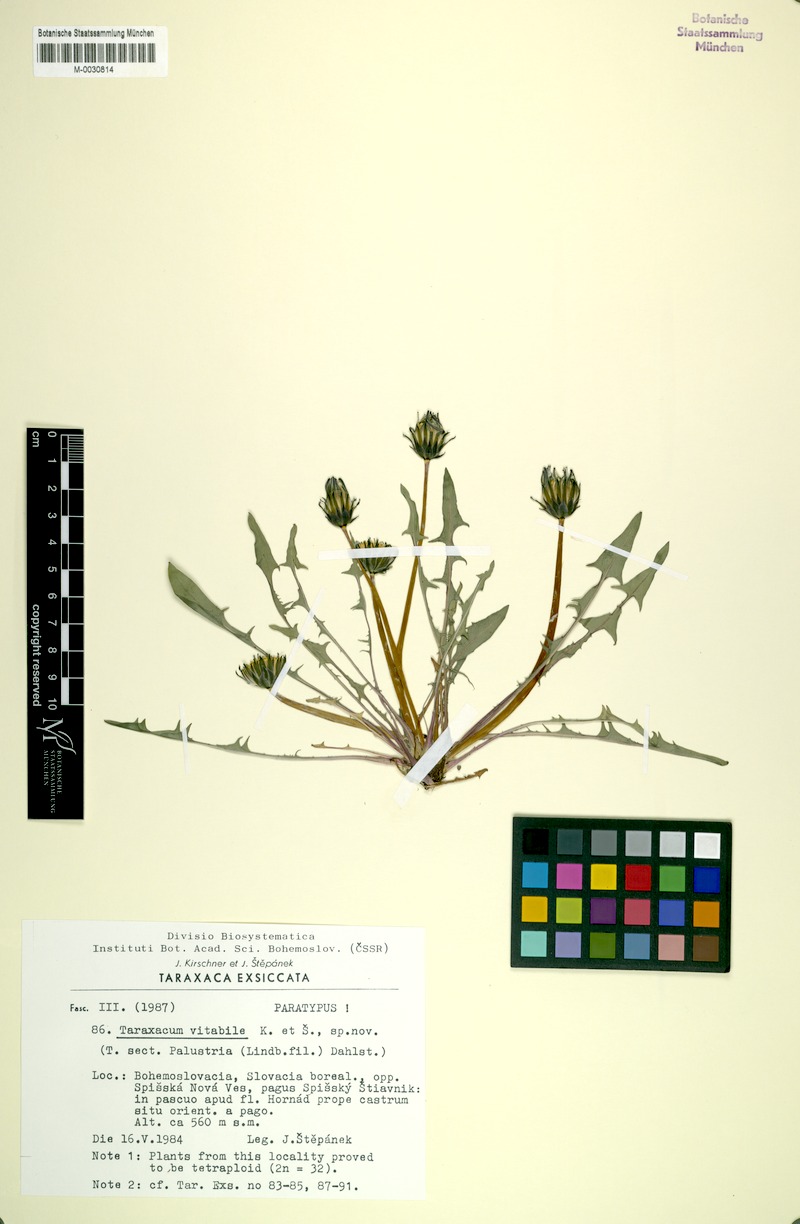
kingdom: Plantae
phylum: Tracheophyta
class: Magnoliopsida
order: Asterales
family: Asteraceae
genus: Taraxacum
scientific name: Taraxacum vindobonense
